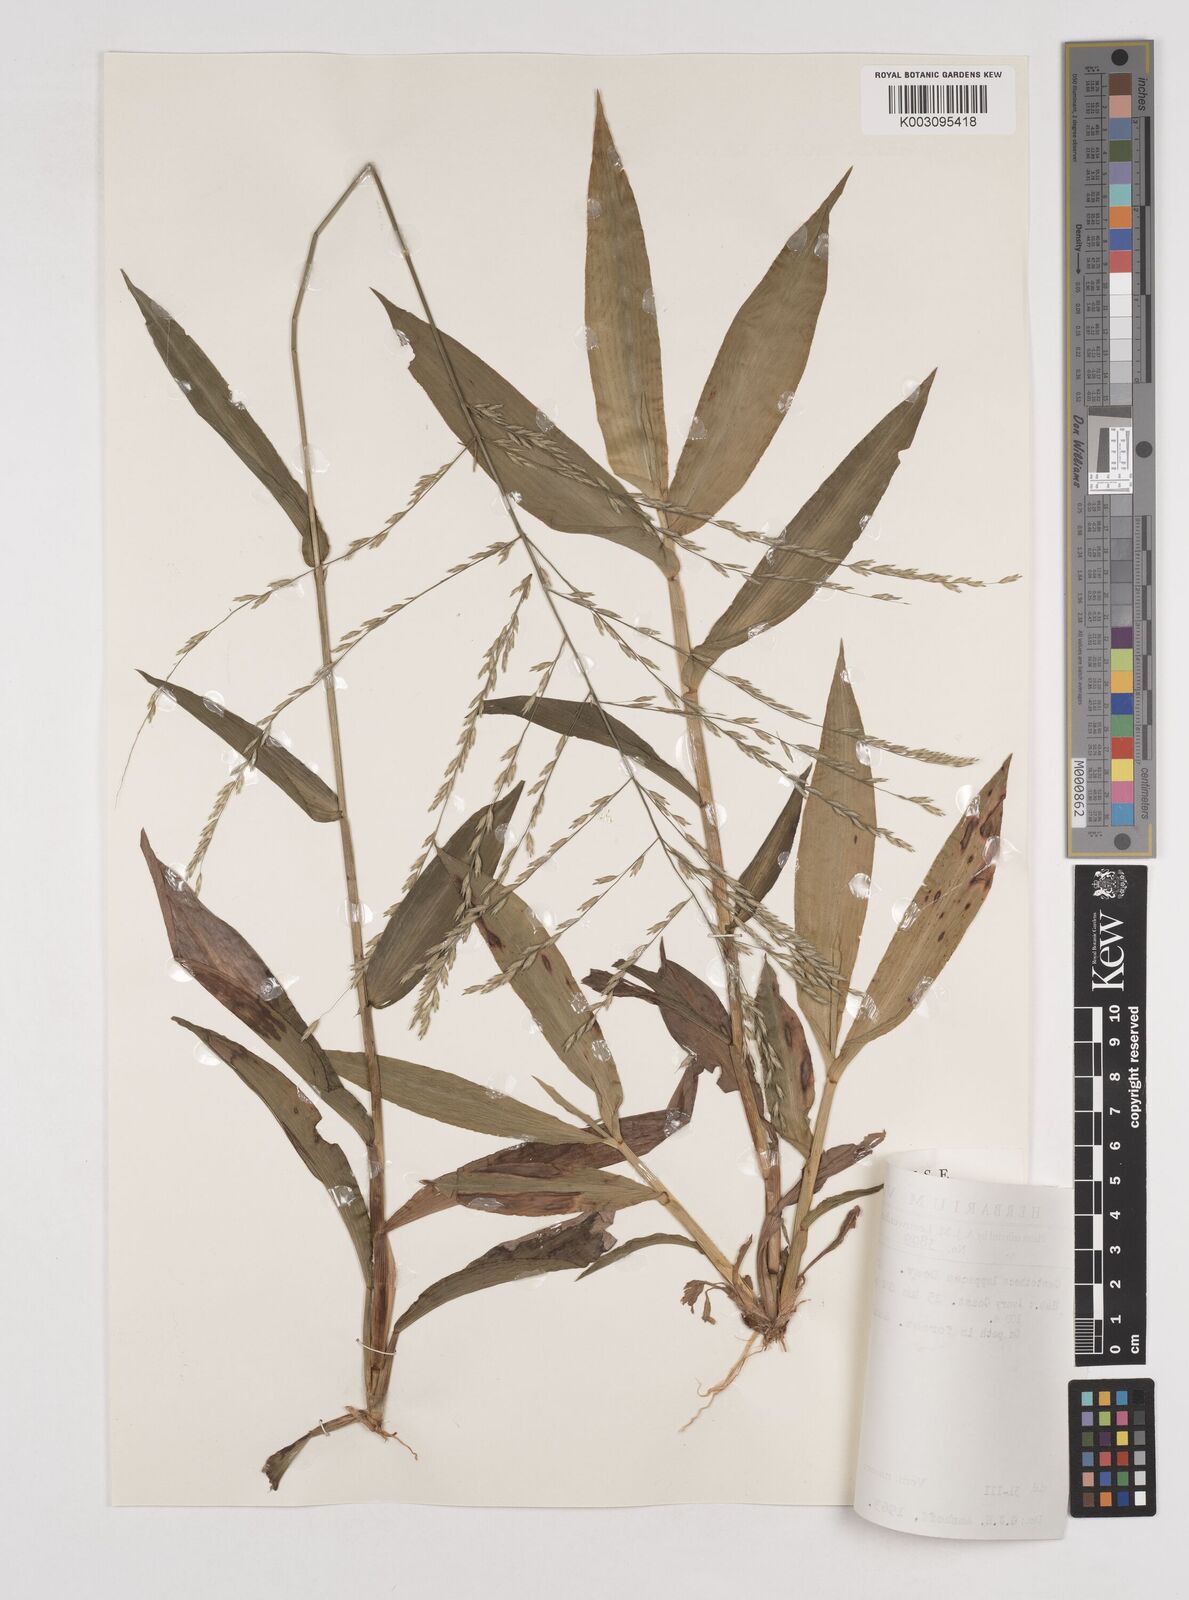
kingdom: Plantae
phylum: Tracheophyta
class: Liliopsida
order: Poales
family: Poaceae
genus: Centotheca
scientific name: Centotheca lappacea
